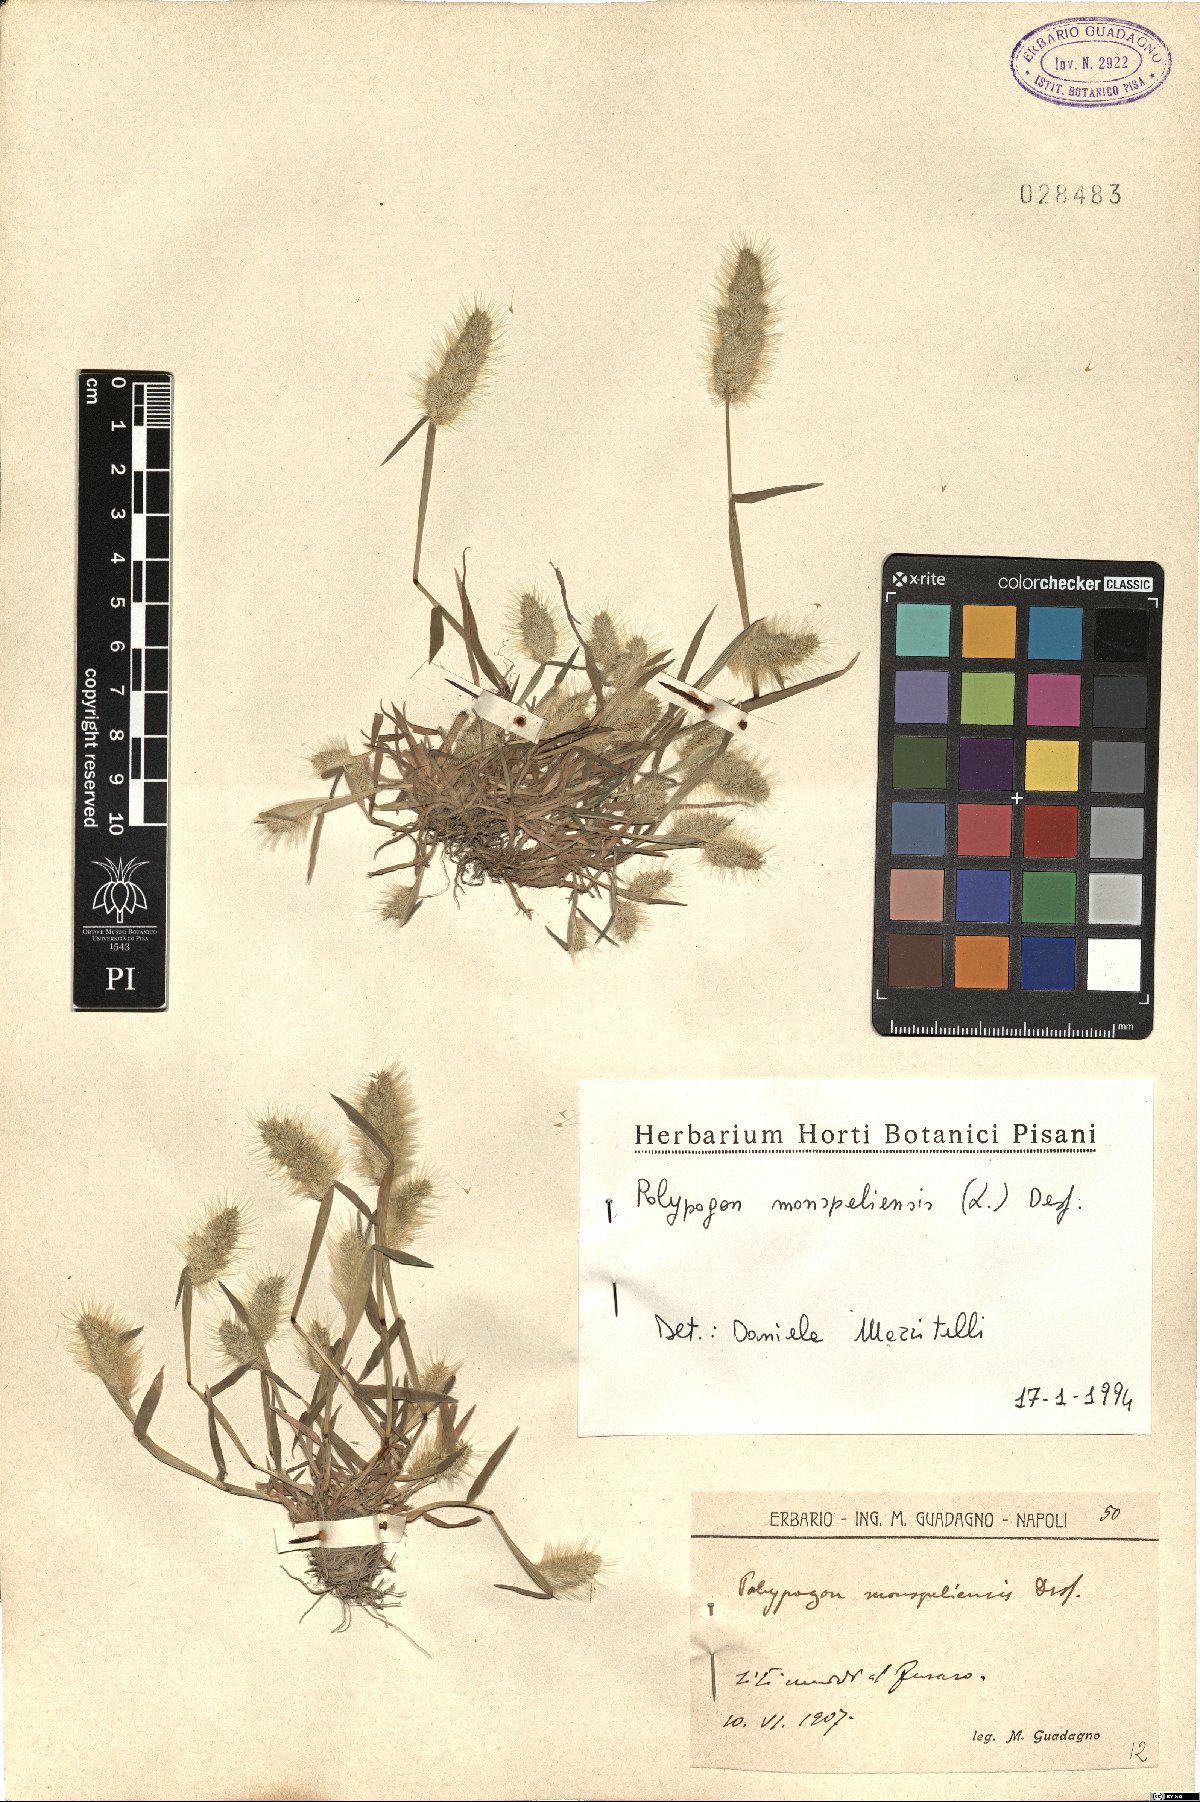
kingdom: Plantae
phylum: Tracheophyta
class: Liliopsida
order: Poales
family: Poaceae
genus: Polypogon
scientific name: Polypogon monspeliensis
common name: Annual rabbitsfoot grass
